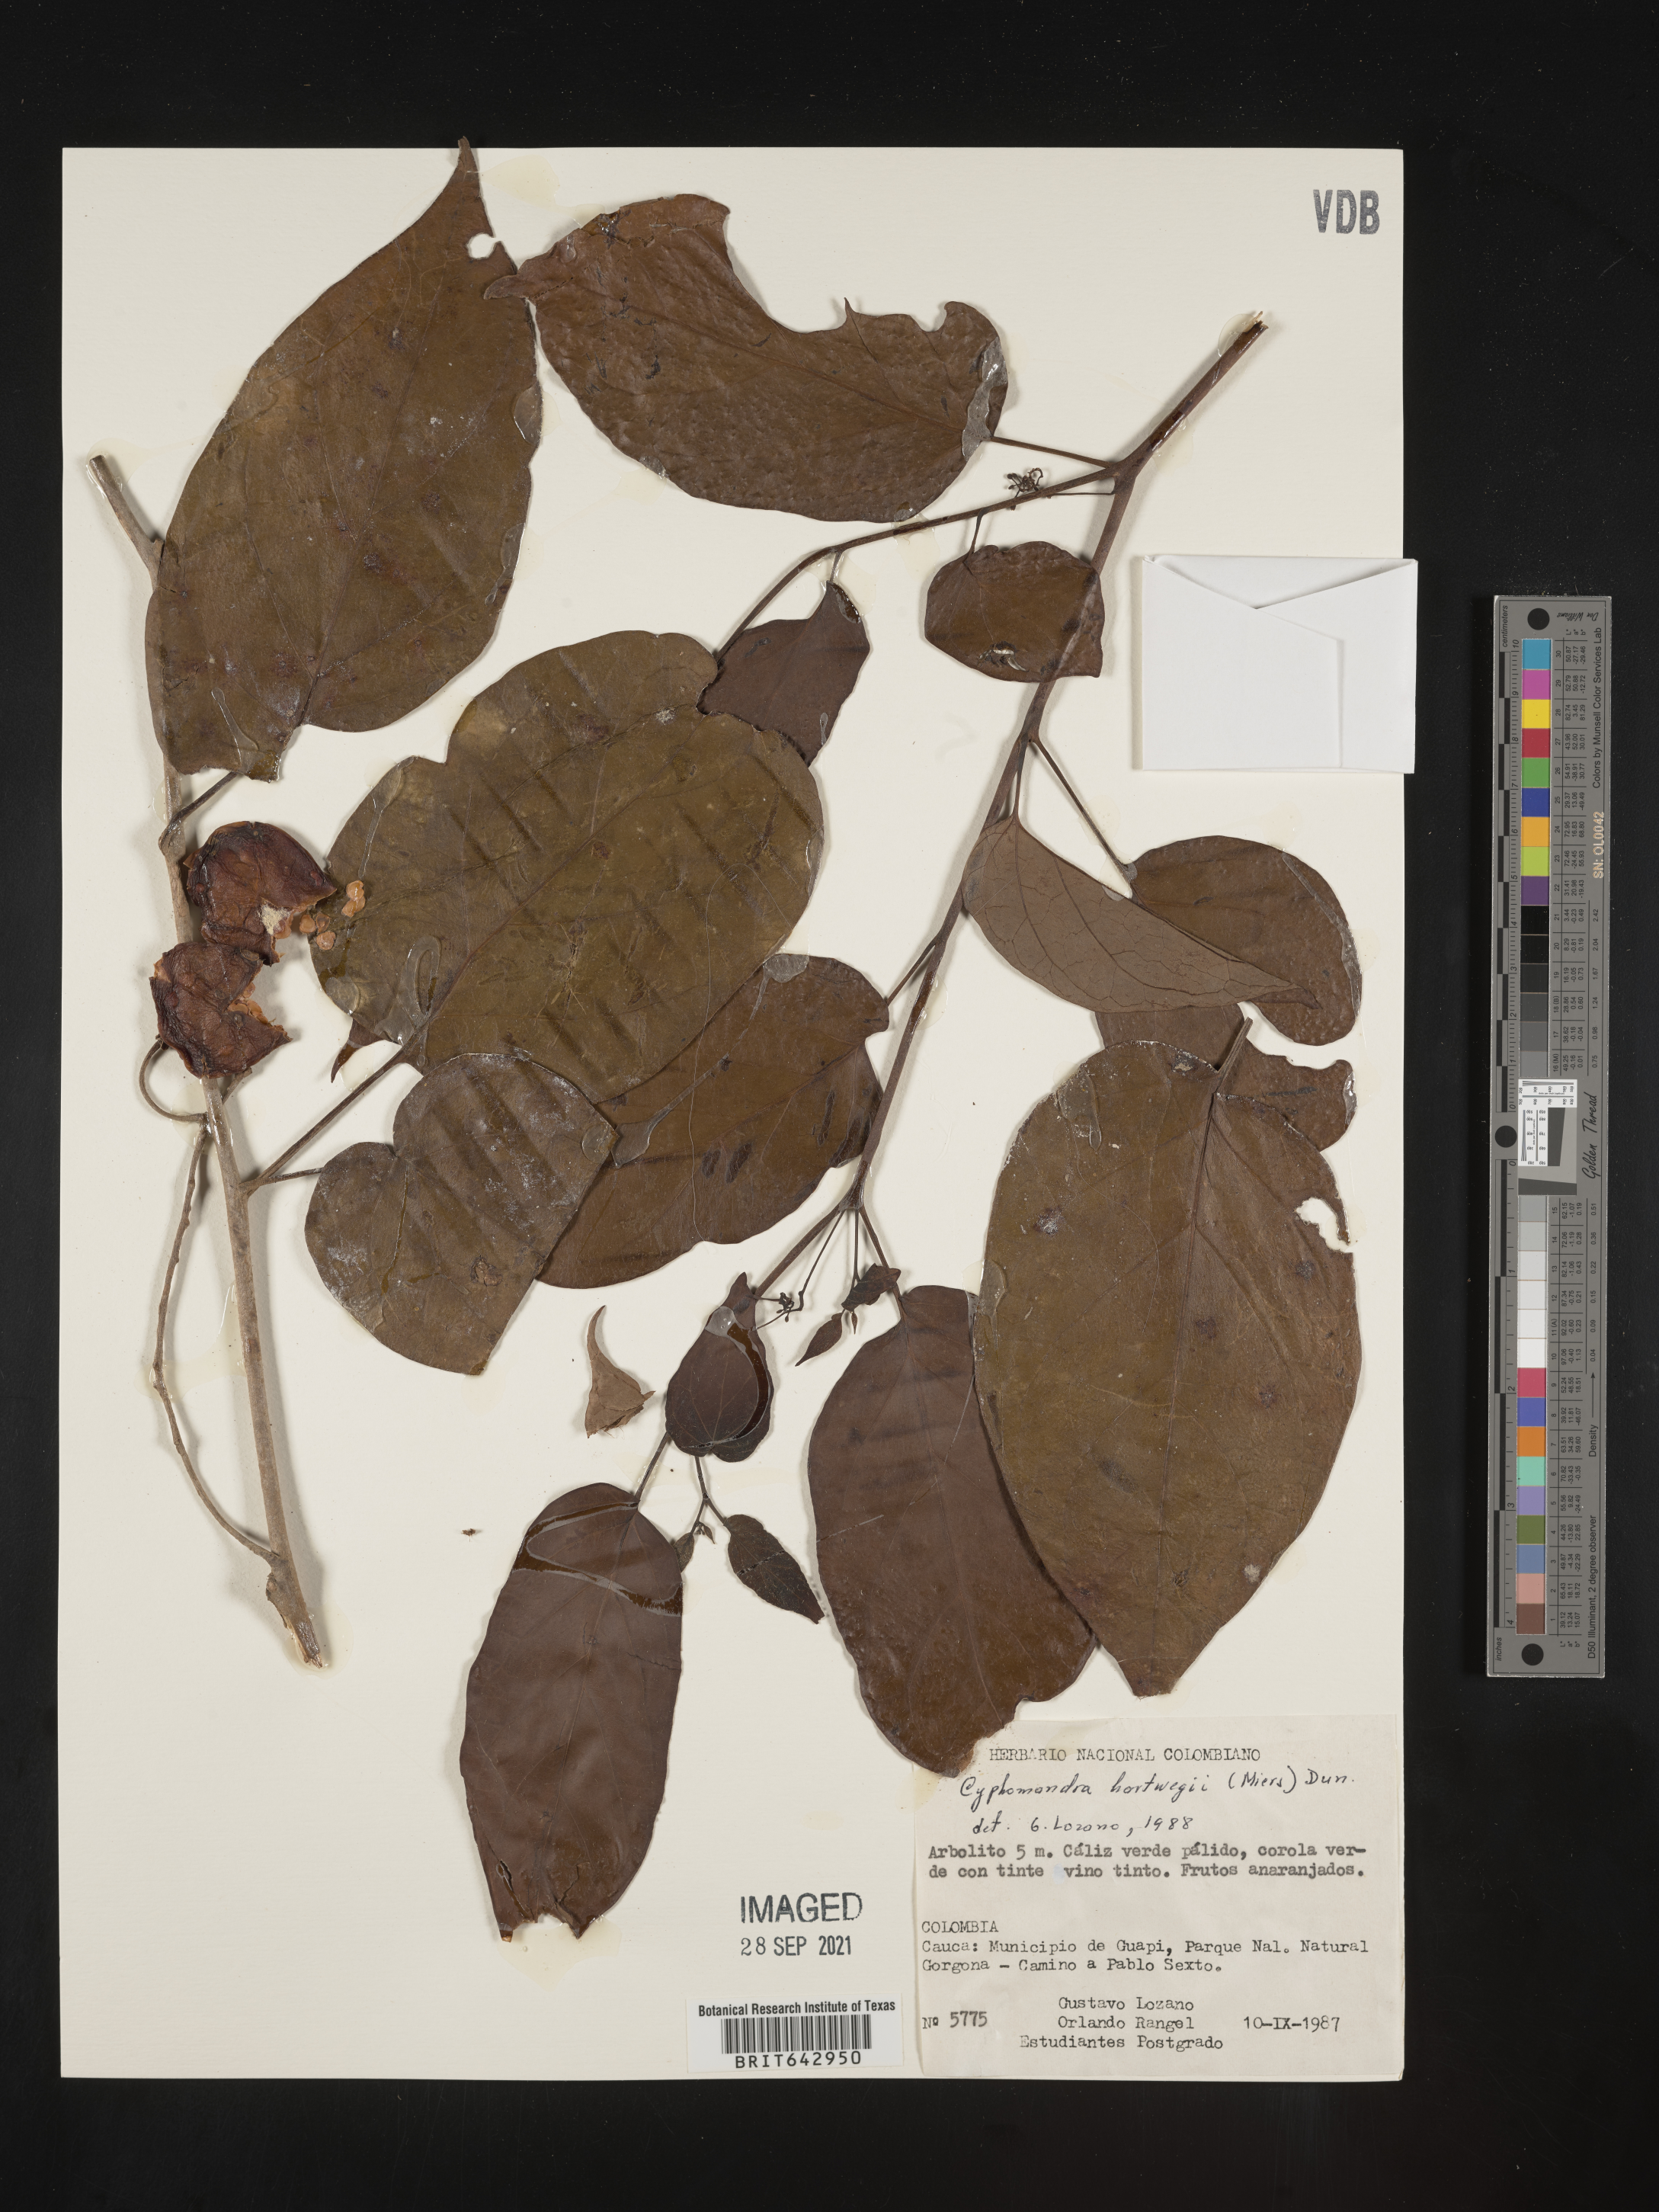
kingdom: Plantae
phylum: Tracheophyta
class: Magnoliopsida
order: Solanales
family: Solanaceae
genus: Solanum
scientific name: Solanum
